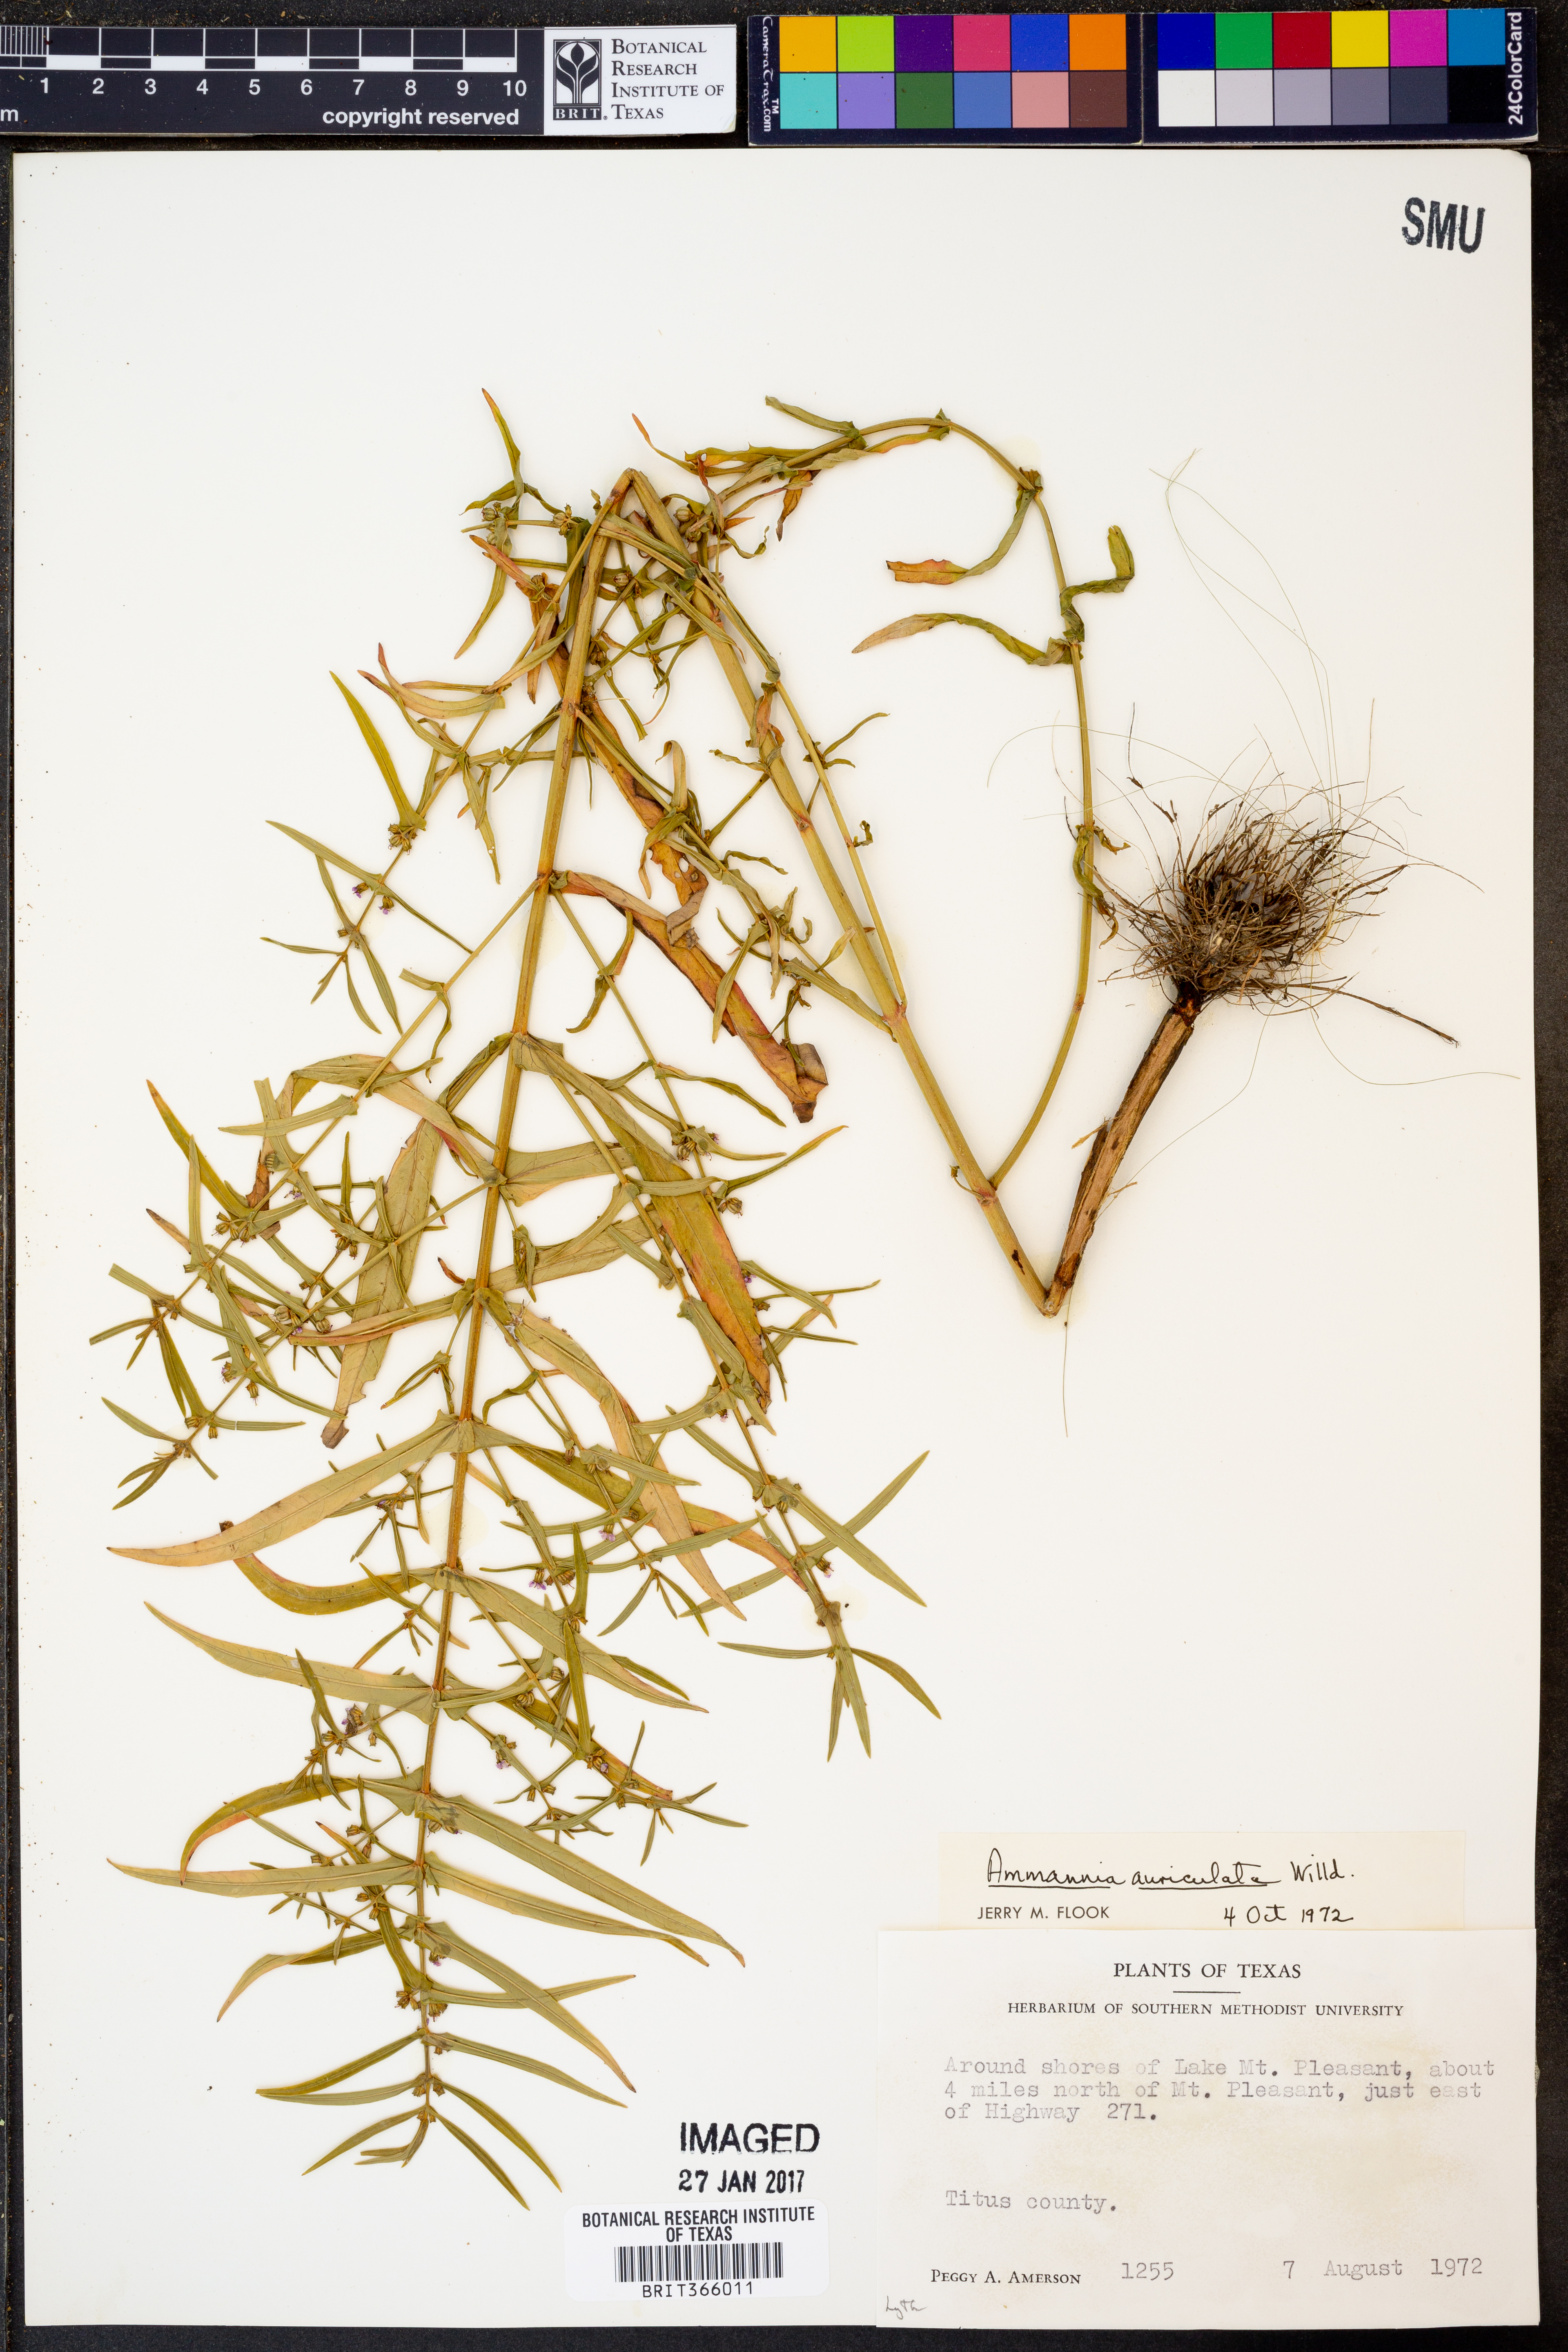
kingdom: Plantae
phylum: Tracheophyta
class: Magnoliopsida
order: Myrtales
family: Lythraceae
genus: Ammannia
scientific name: Ammannia auriculata
